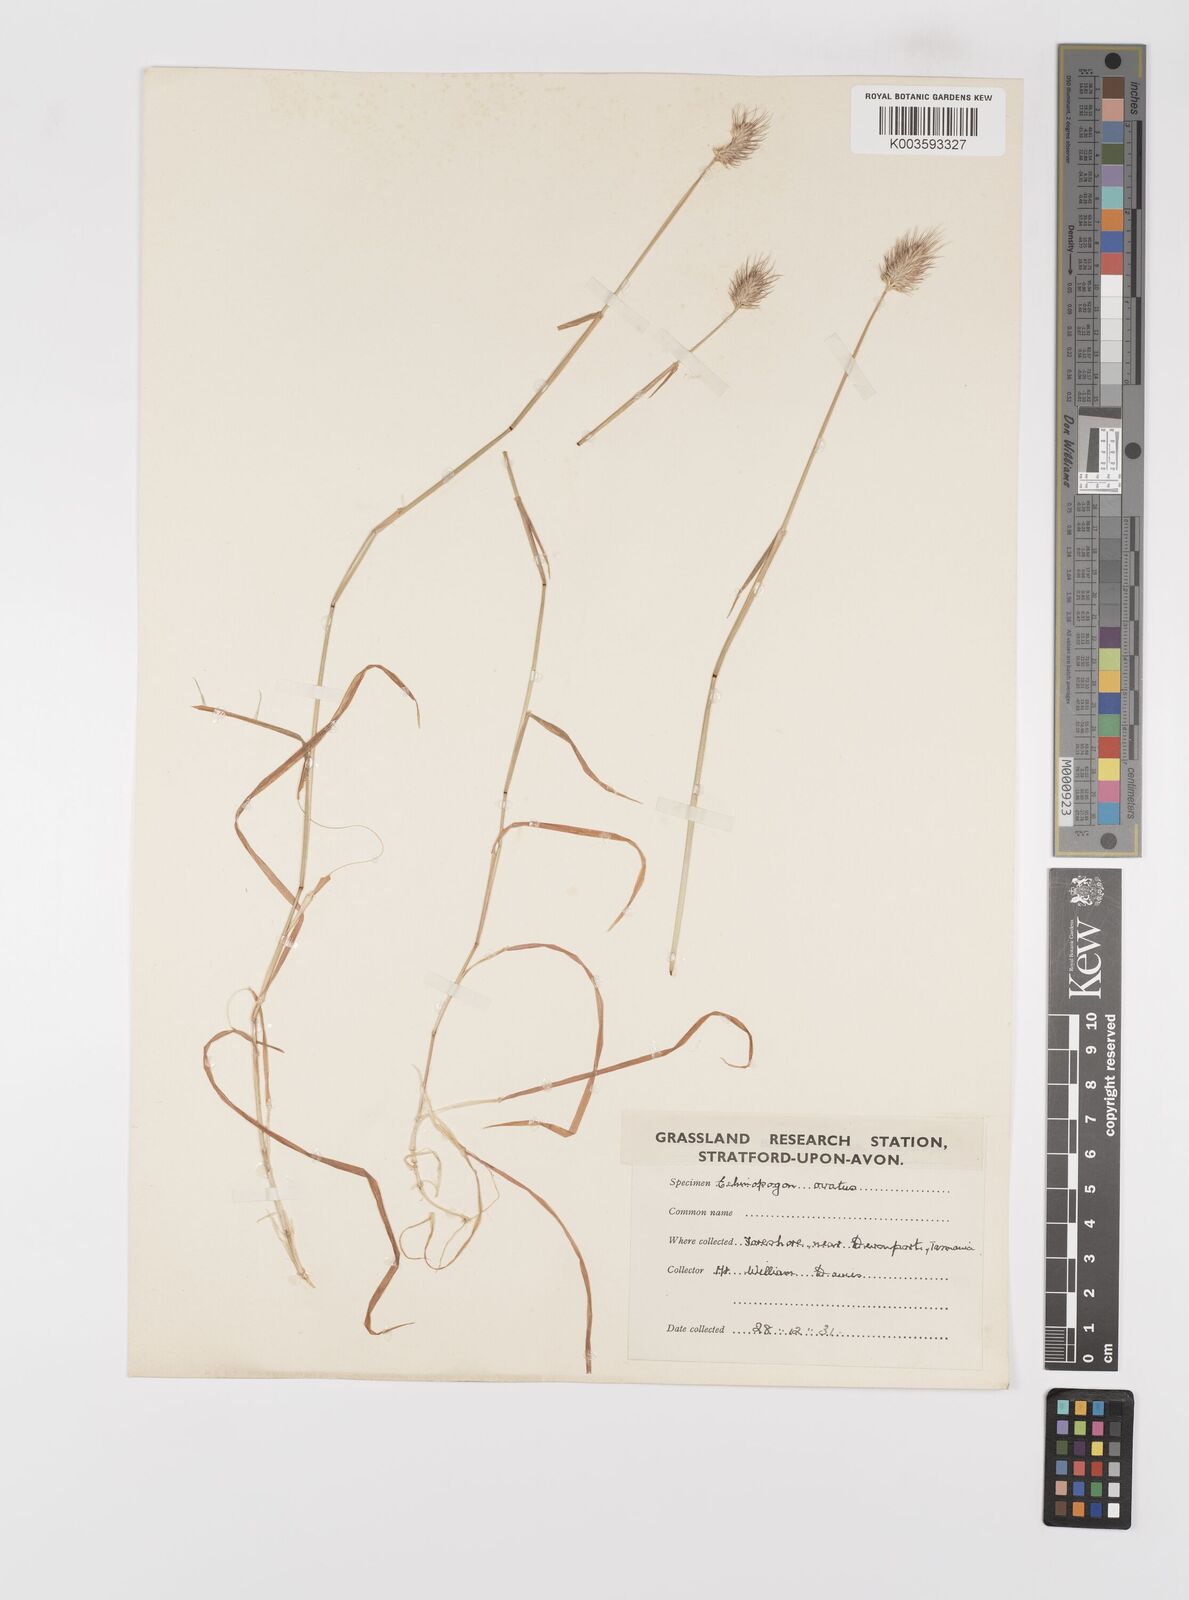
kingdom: Plantae
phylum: Tracheophyta
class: Liliopsida
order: Poales
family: Poaceae
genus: Echinopogon
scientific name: Echinopogon ovatus
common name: Hedgehog-grass
